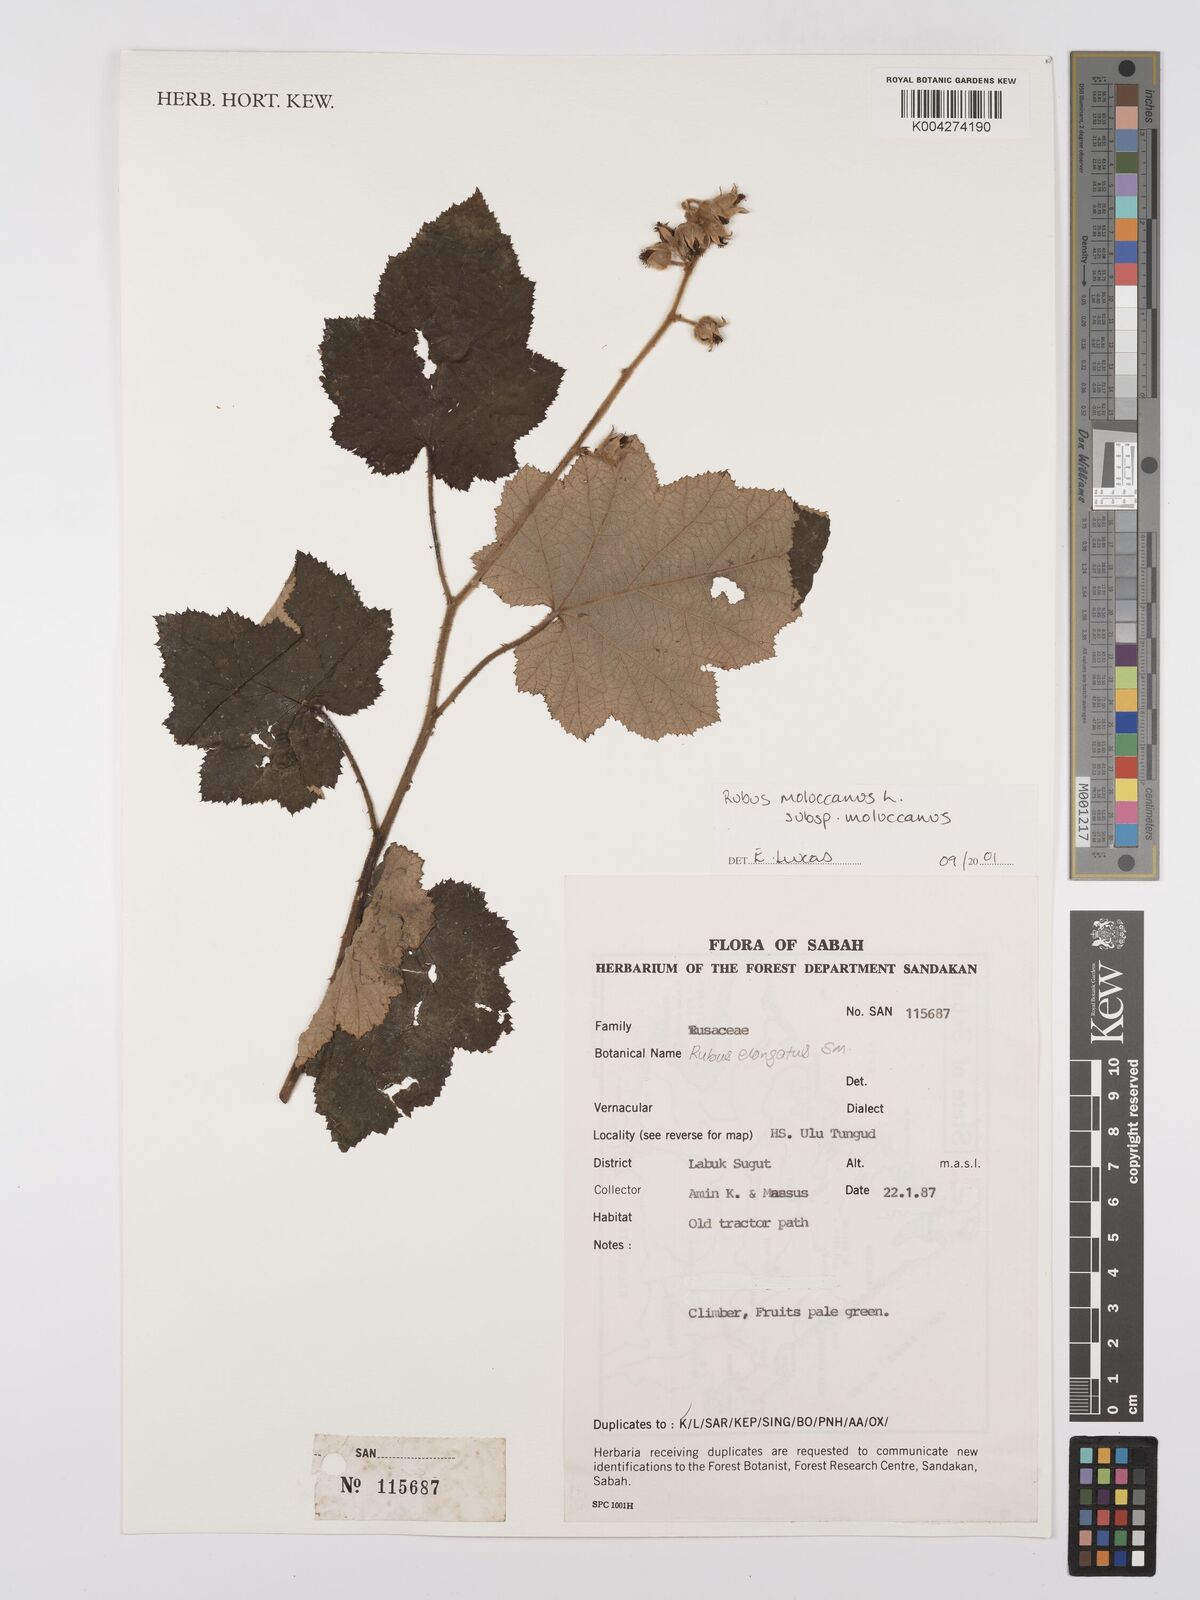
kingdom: Plantae
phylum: Tracheophyta
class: Magnoliopsida
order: Rosales
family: Rosaceae
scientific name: Rosaceae
